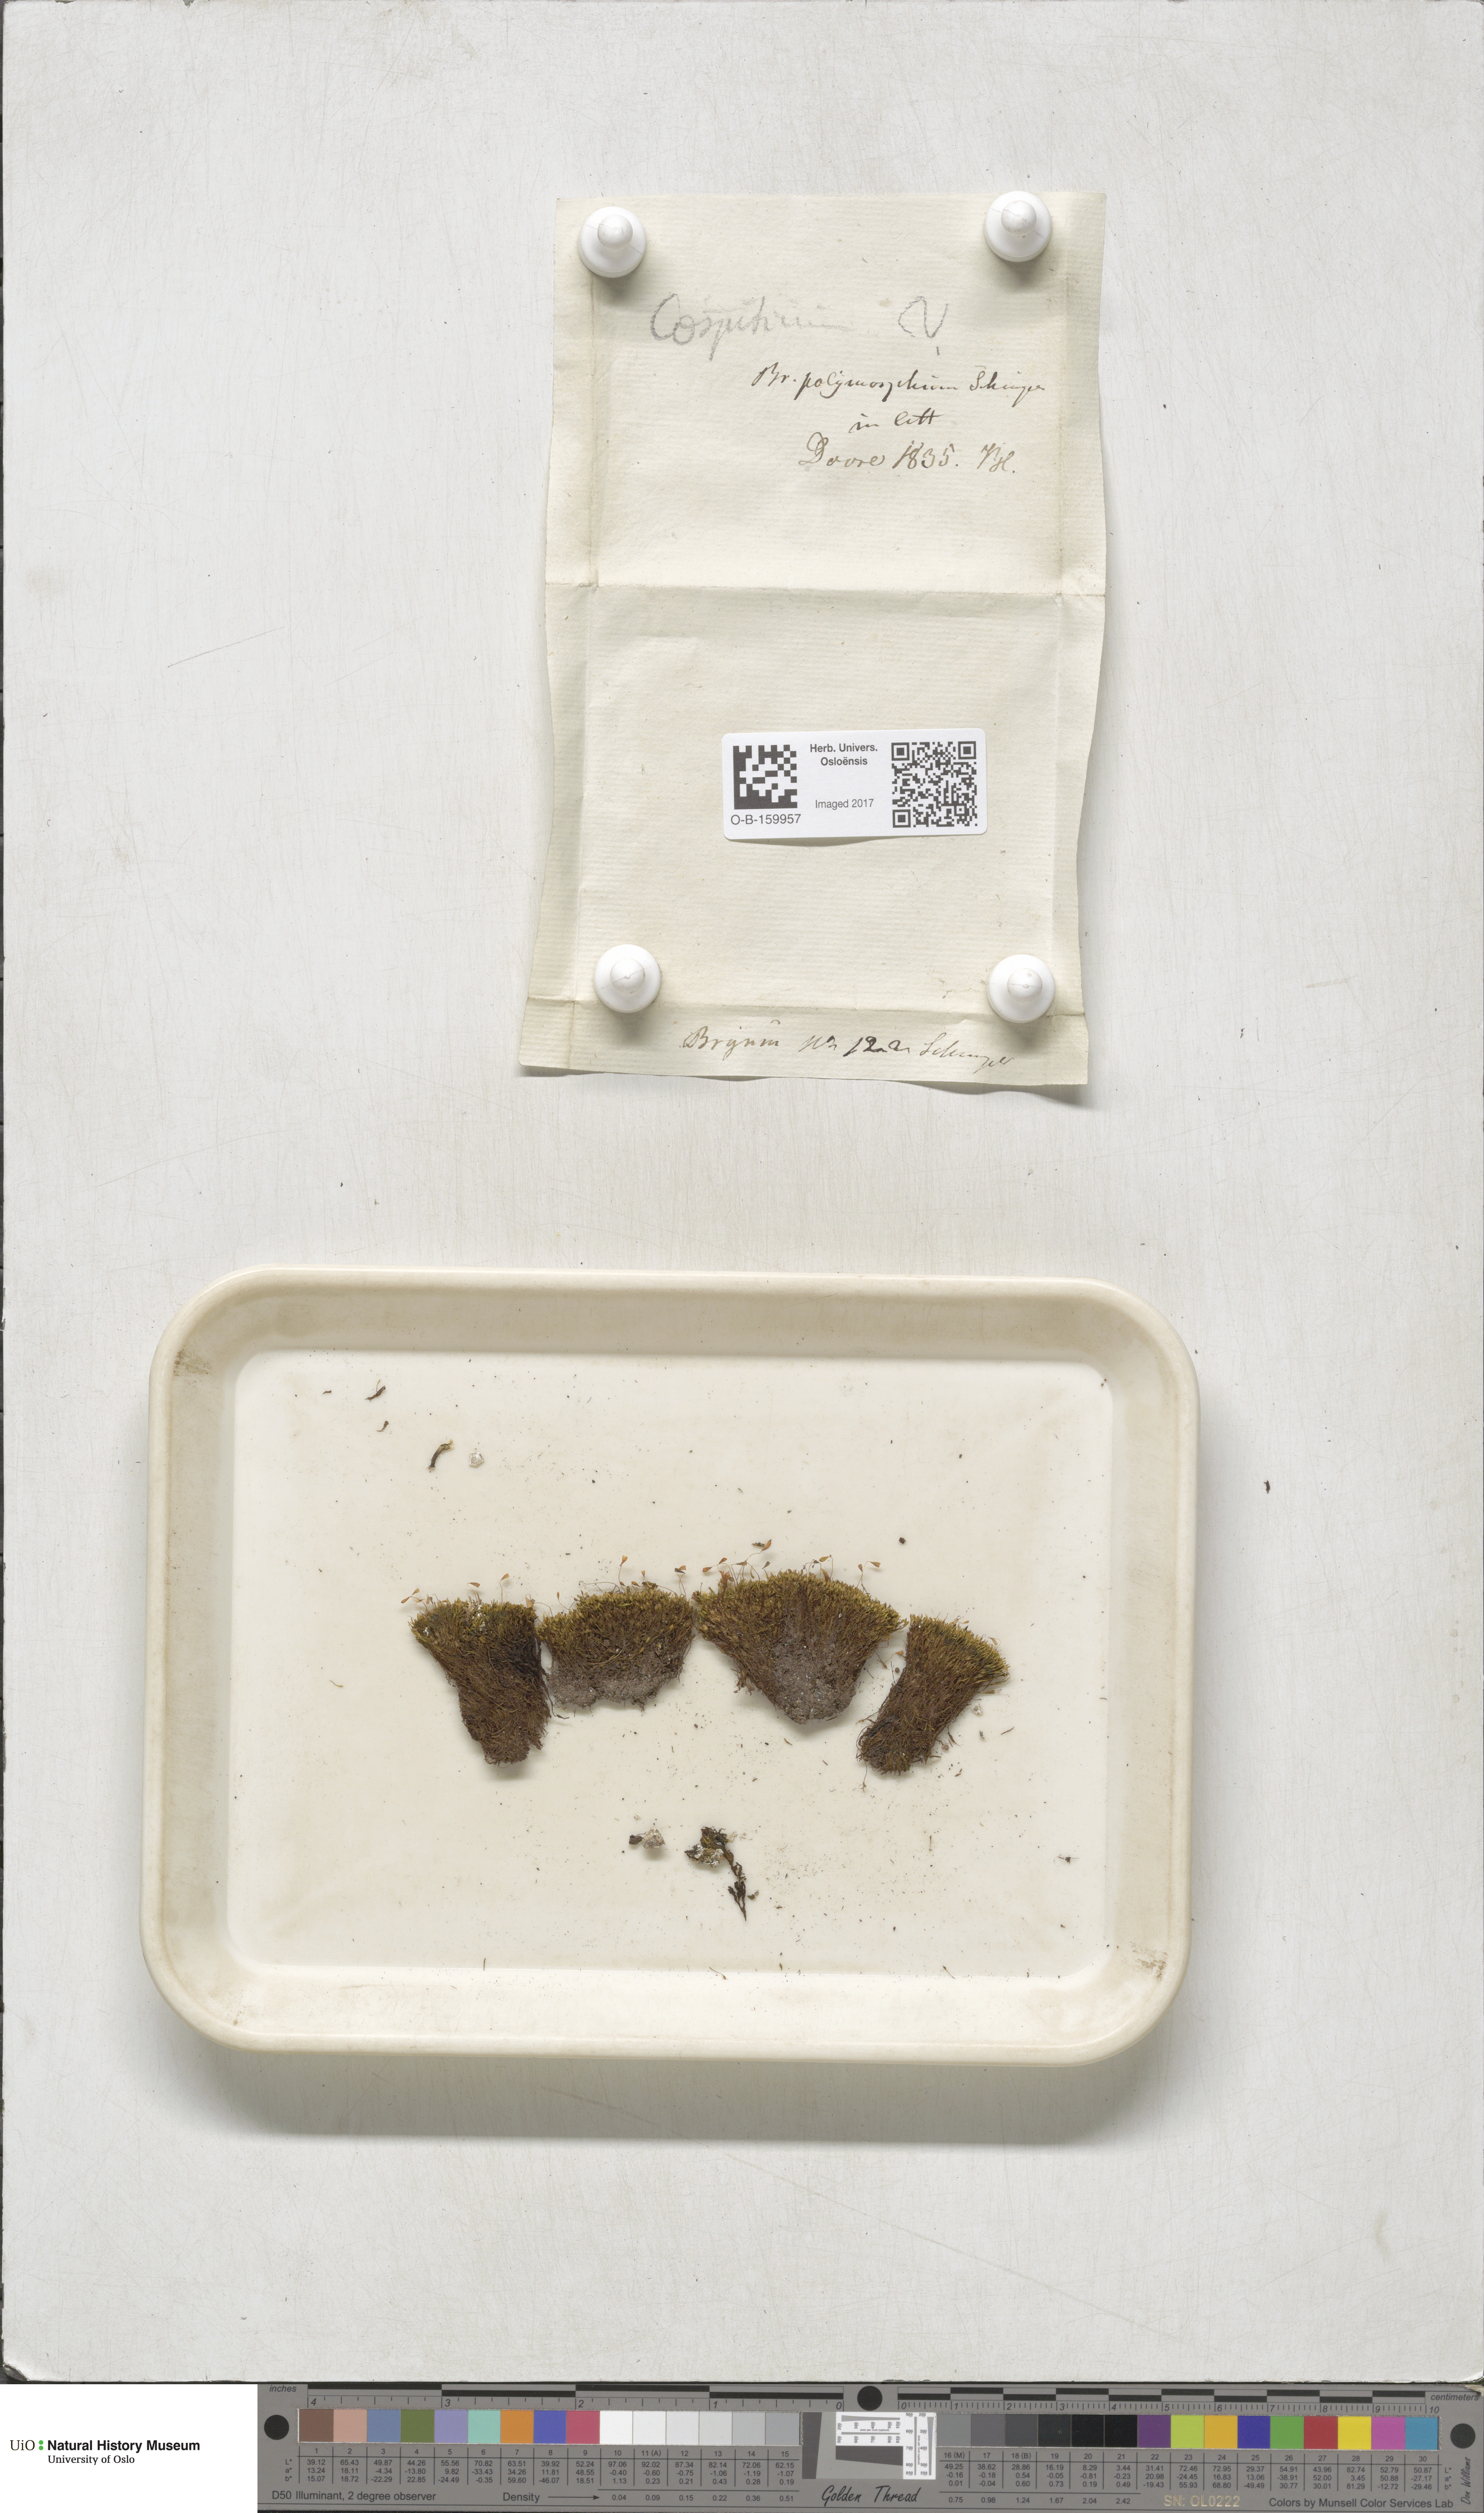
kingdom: Plantae
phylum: Bryophyta
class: Bryopsida
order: Bryales
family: Mniaceae
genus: Pohlia
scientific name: Pohlia elongata
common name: Long-fruited thread-moss
